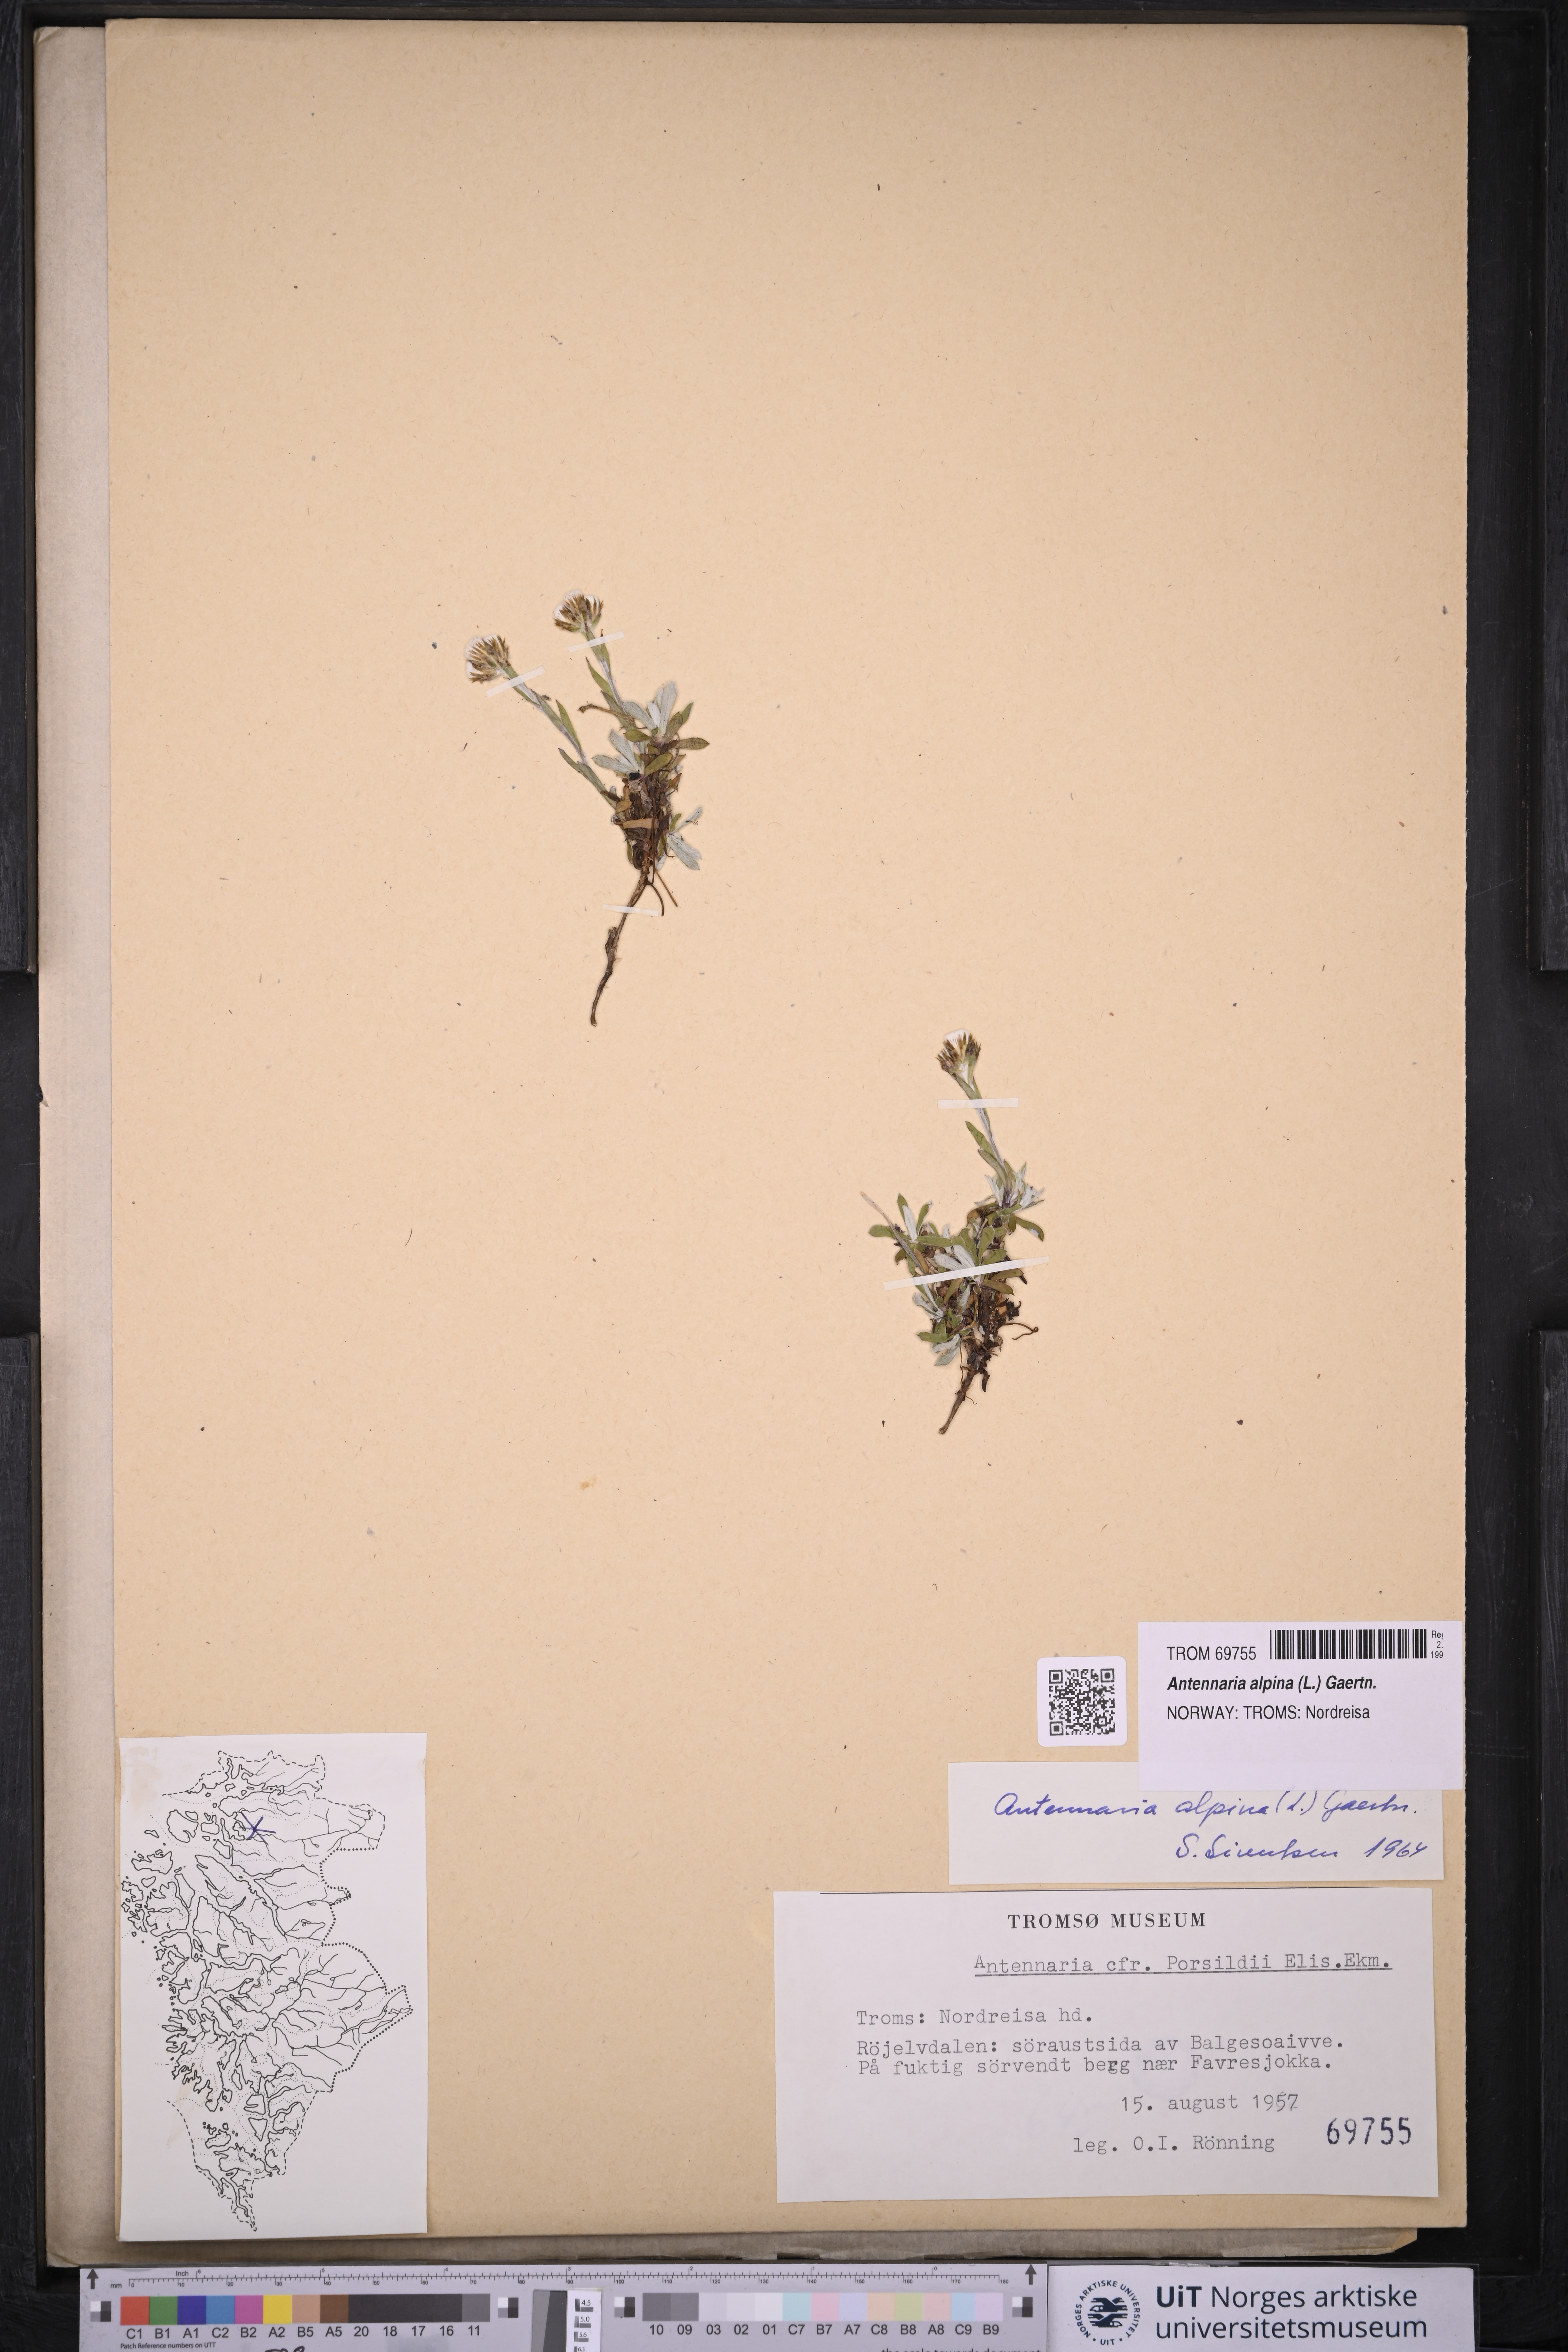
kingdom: Plantae
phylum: Tracheophyta
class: Magnoliopsida
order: Asterales
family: Asteraceae
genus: Antennaria
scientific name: Antennaria alpina
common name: Alpine pussytoes
